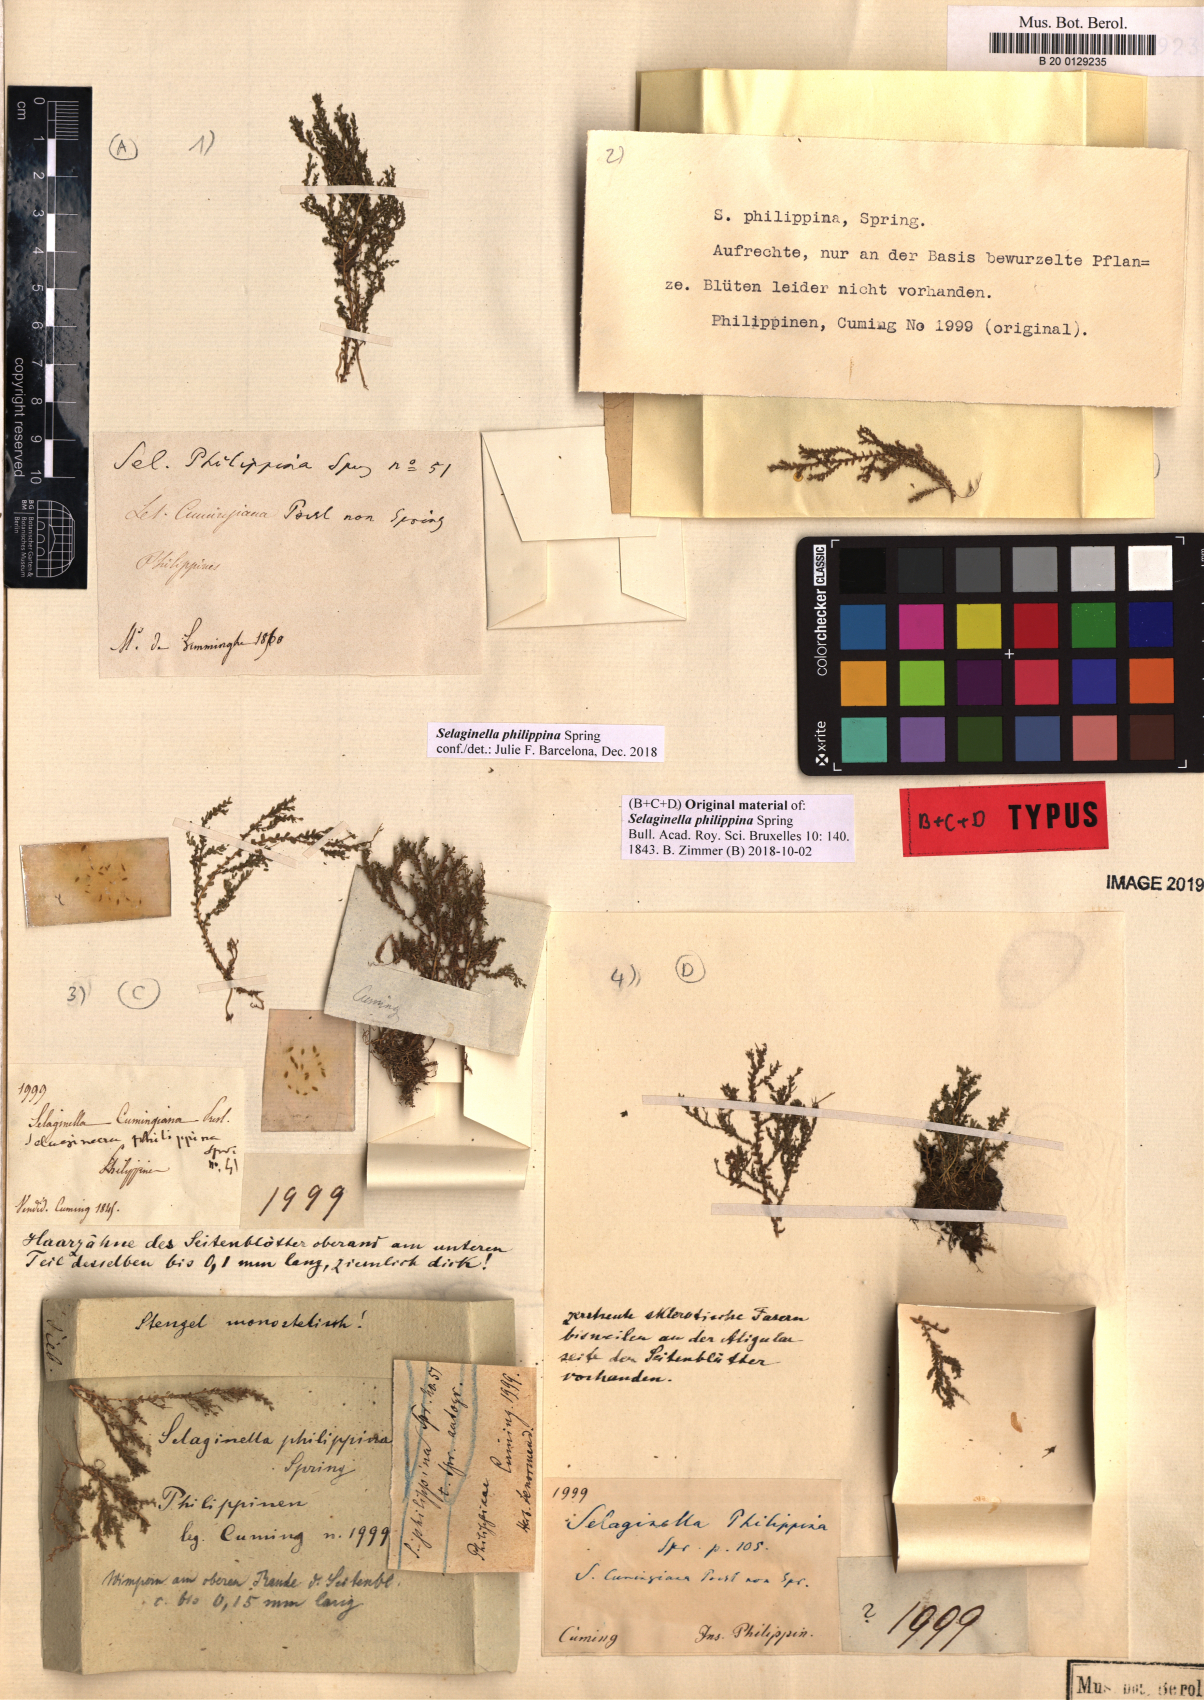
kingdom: Plantae
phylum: Tracheophyta
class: Lycopodiopsida
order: Selaginellales
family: Selaginellaceae
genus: Selaginella
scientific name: Selaginella philippsiana
